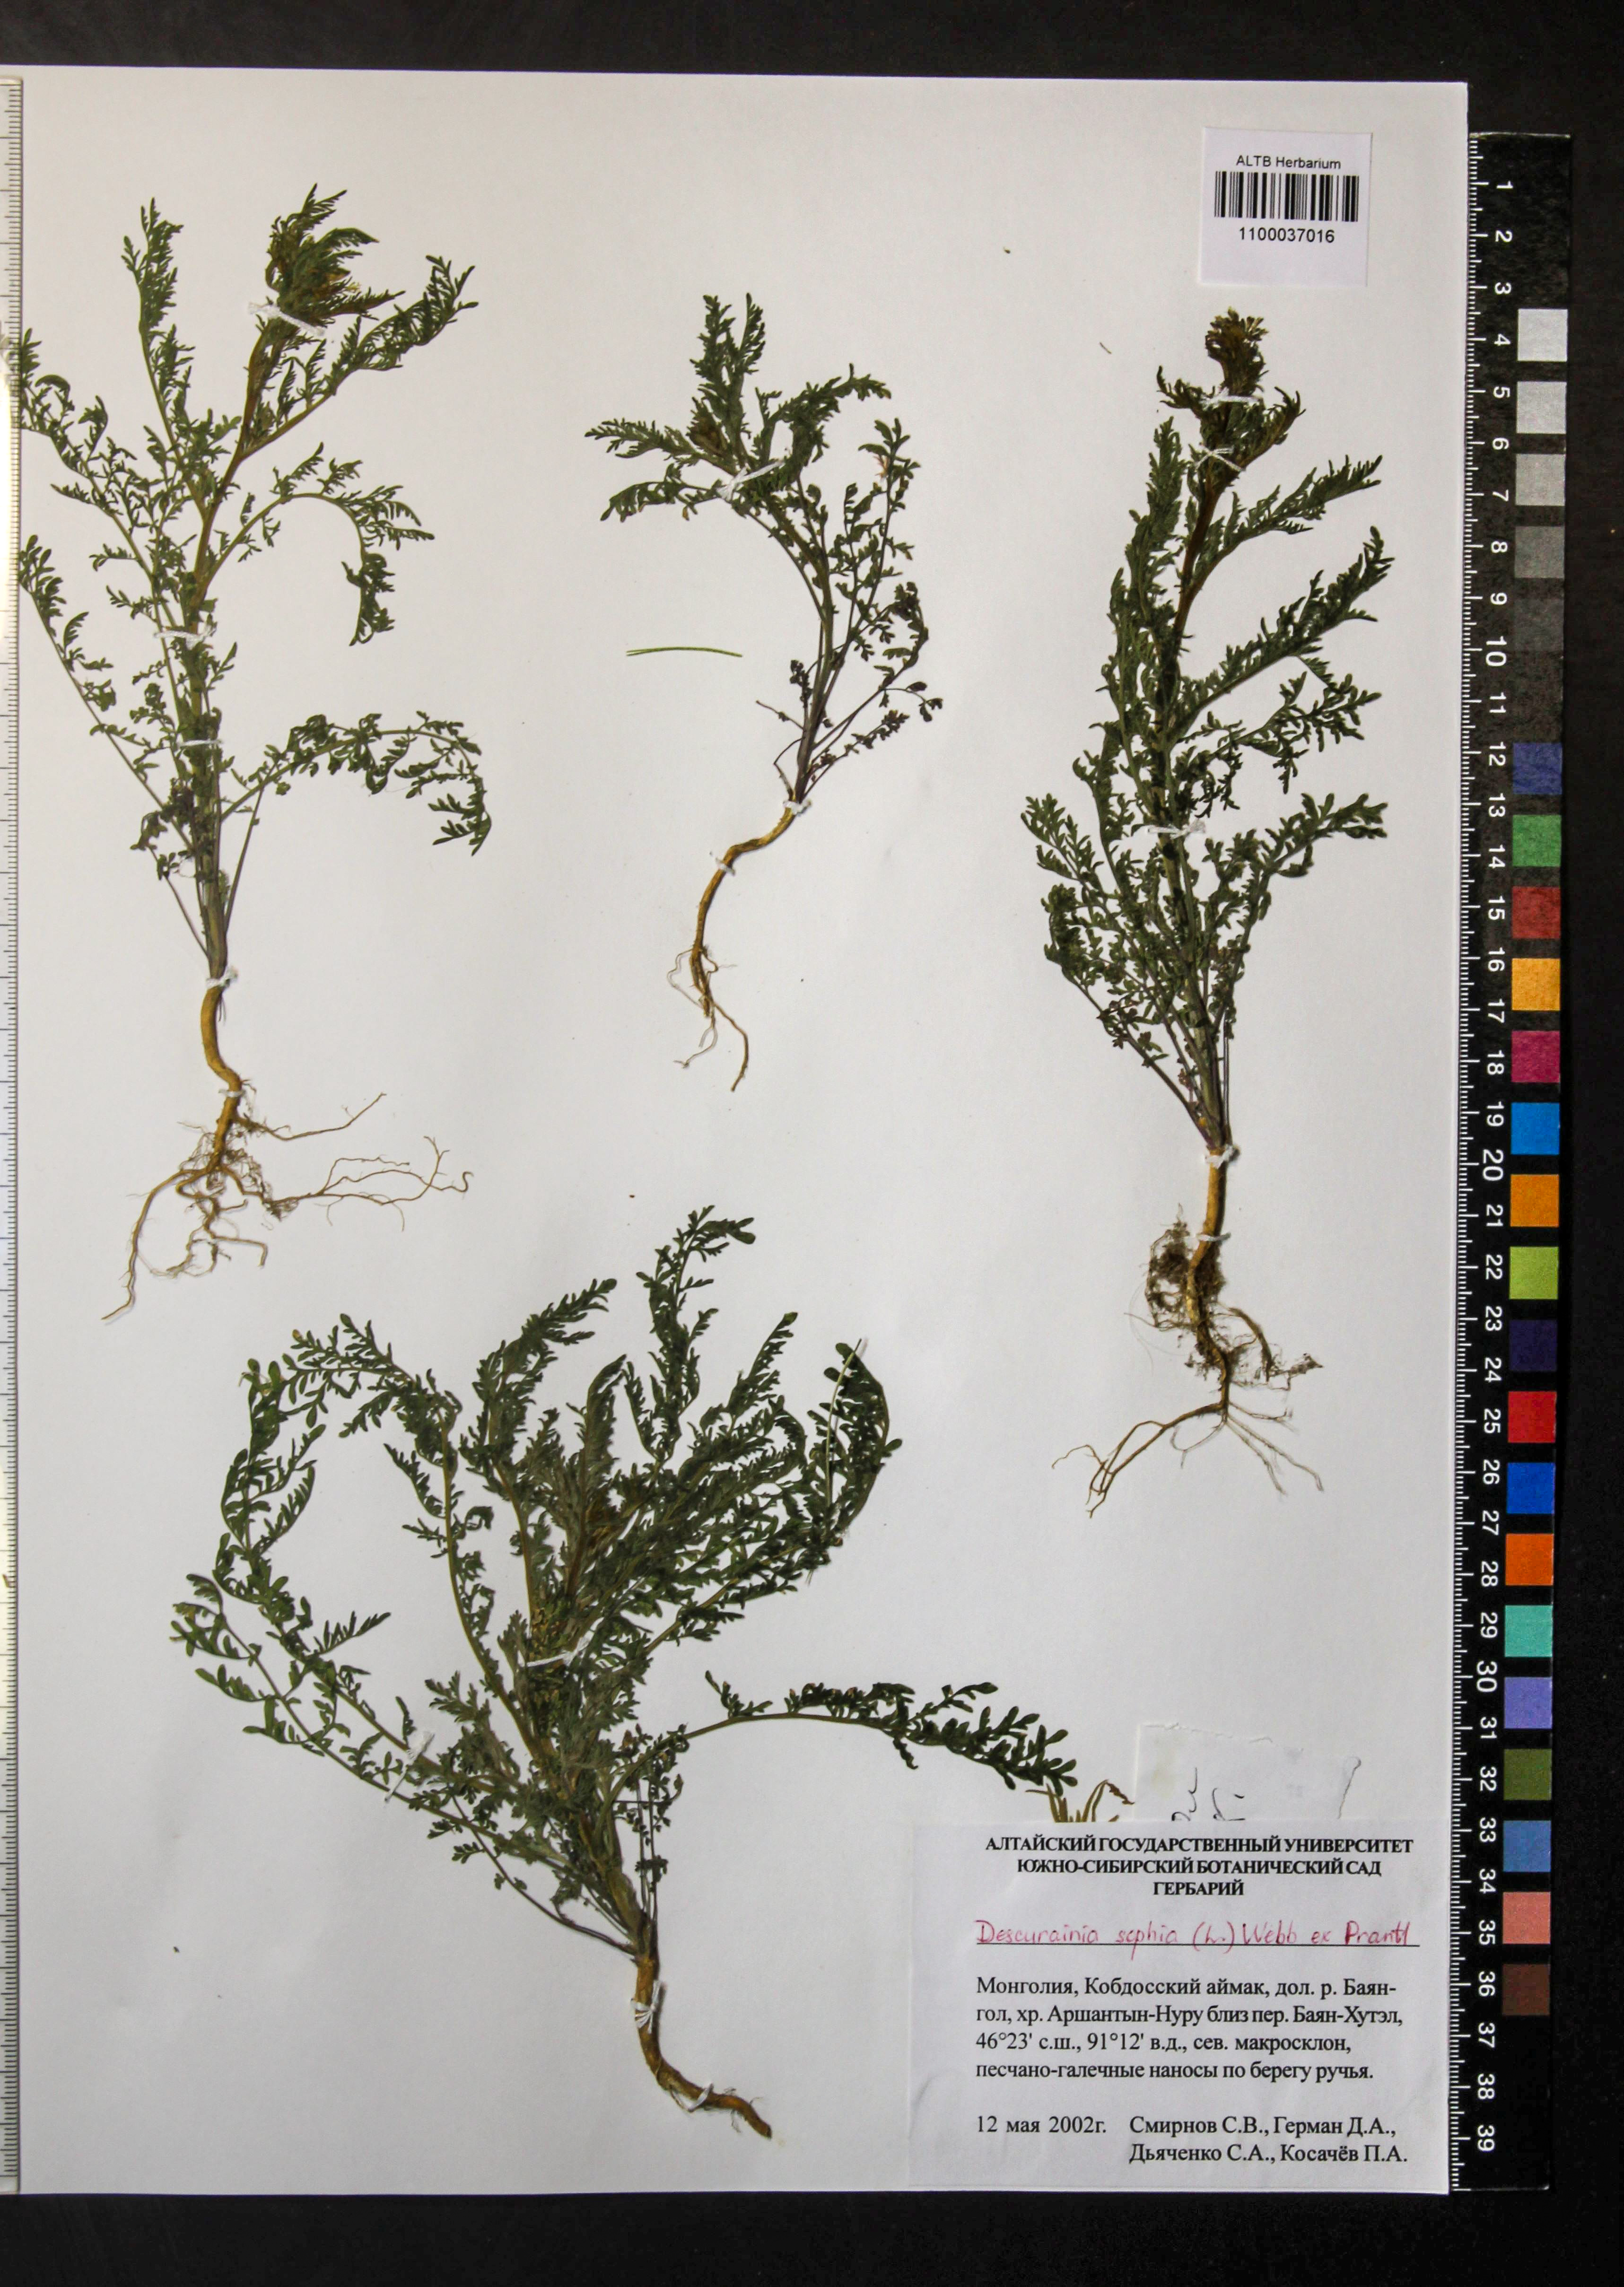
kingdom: Plantae
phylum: Tracheophyta
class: Magnoliopsida
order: Brassicales
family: Brassicaceae
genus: Descurainia
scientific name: Descurainia sophia
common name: Flixweed
